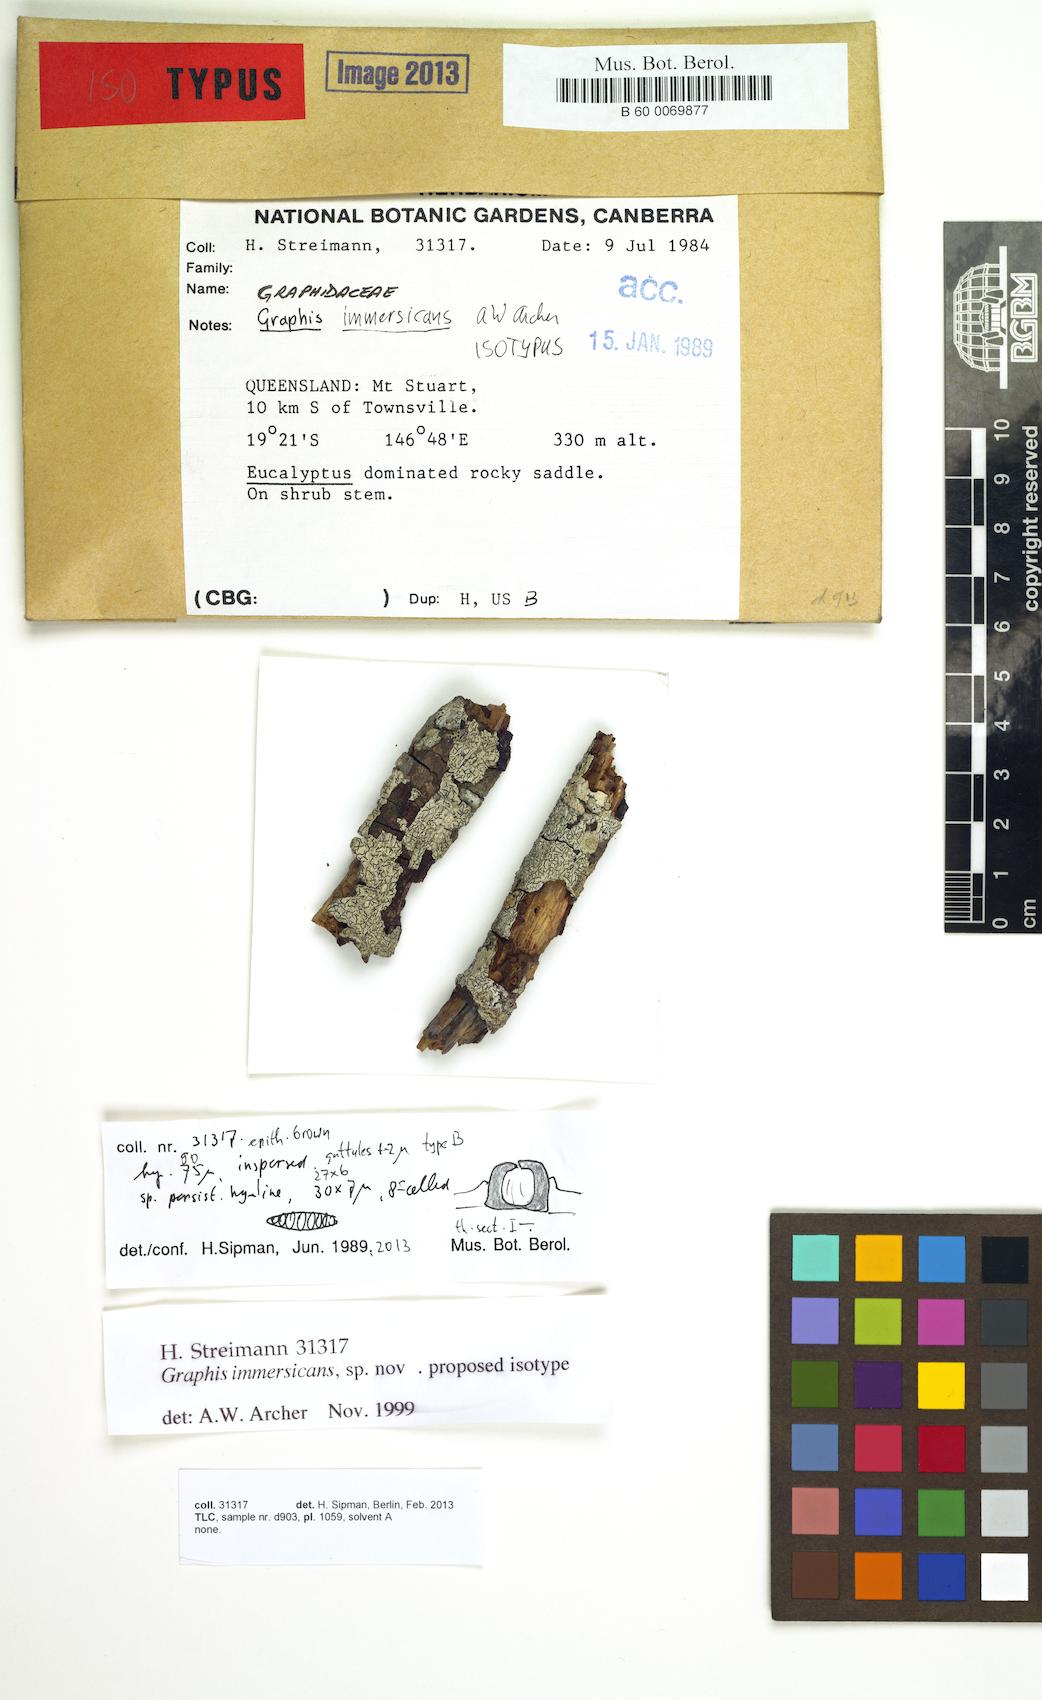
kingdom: Fungi
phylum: Ascomycota
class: Lecanoromycetes
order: Ostropales
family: Graphidaceae
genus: Graphis
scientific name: Graphis immersicans
